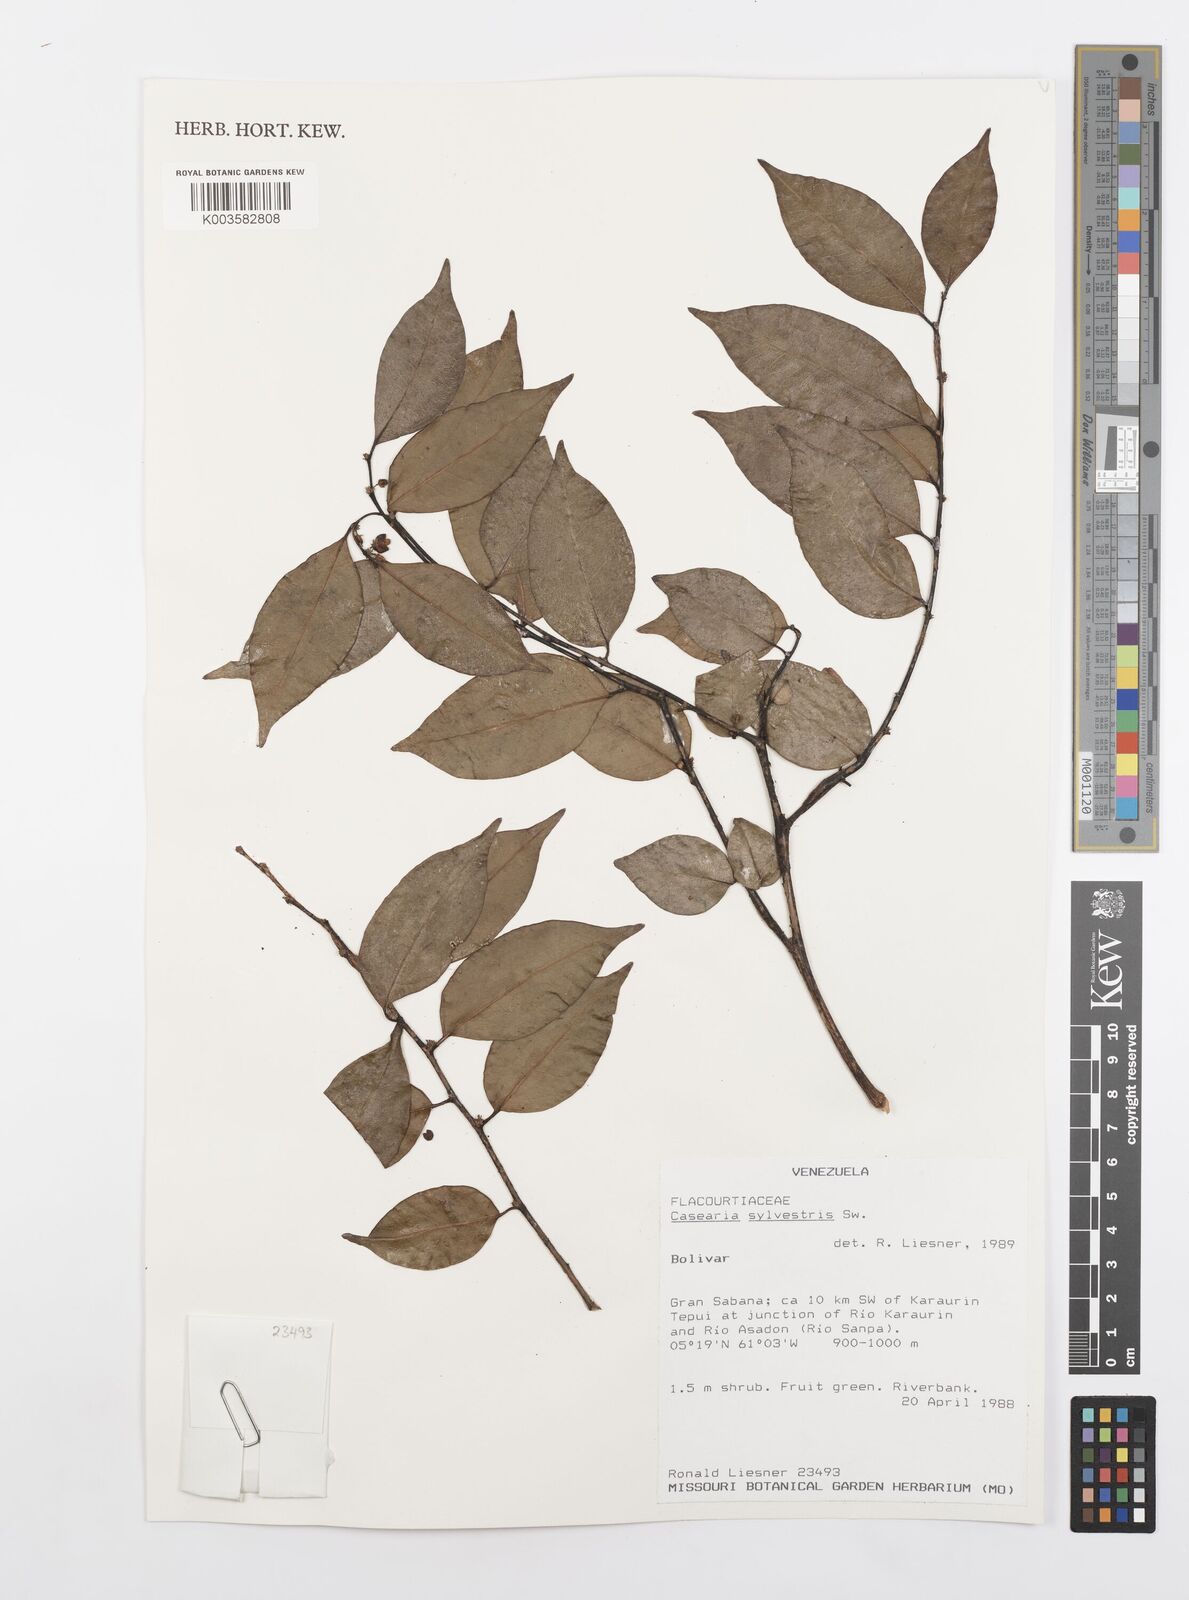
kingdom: Plantae
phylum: Tracheophyta
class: Magnoliopsida
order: Malpighiales
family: Salicaceae
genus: Casearia
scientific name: Casearia sylvestris
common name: Wild sage
